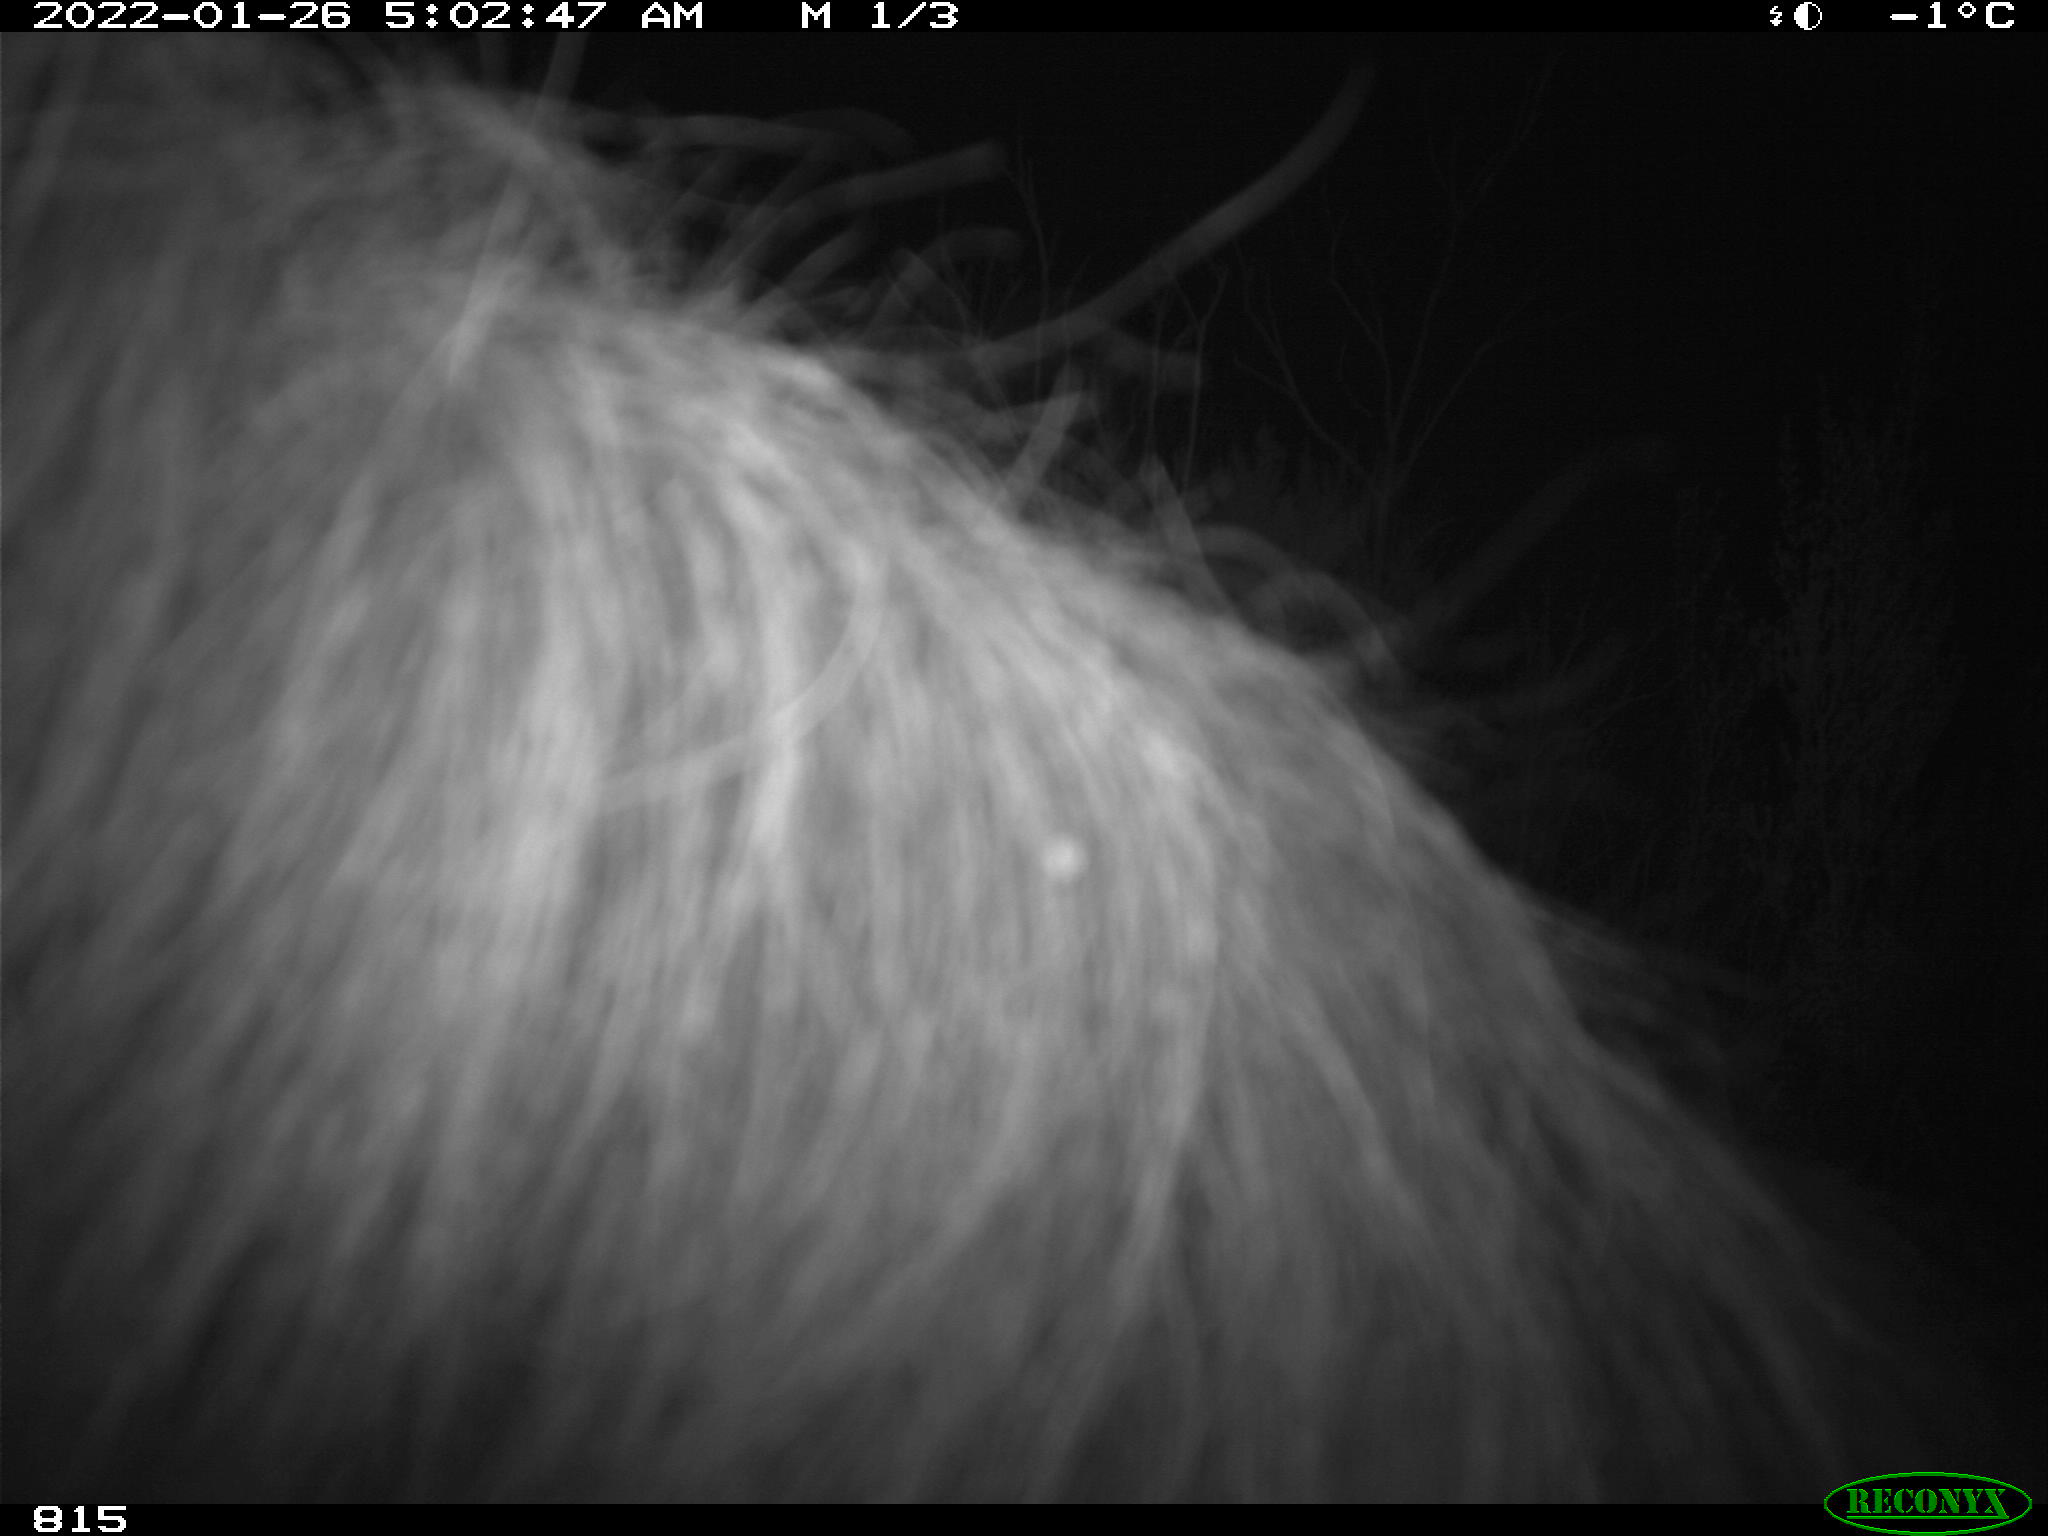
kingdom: Animalia
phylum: Chordata
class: Mammalia
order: Perissodactyla
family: Equidae
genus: Equus
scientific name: Equus caballus
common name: Horse
